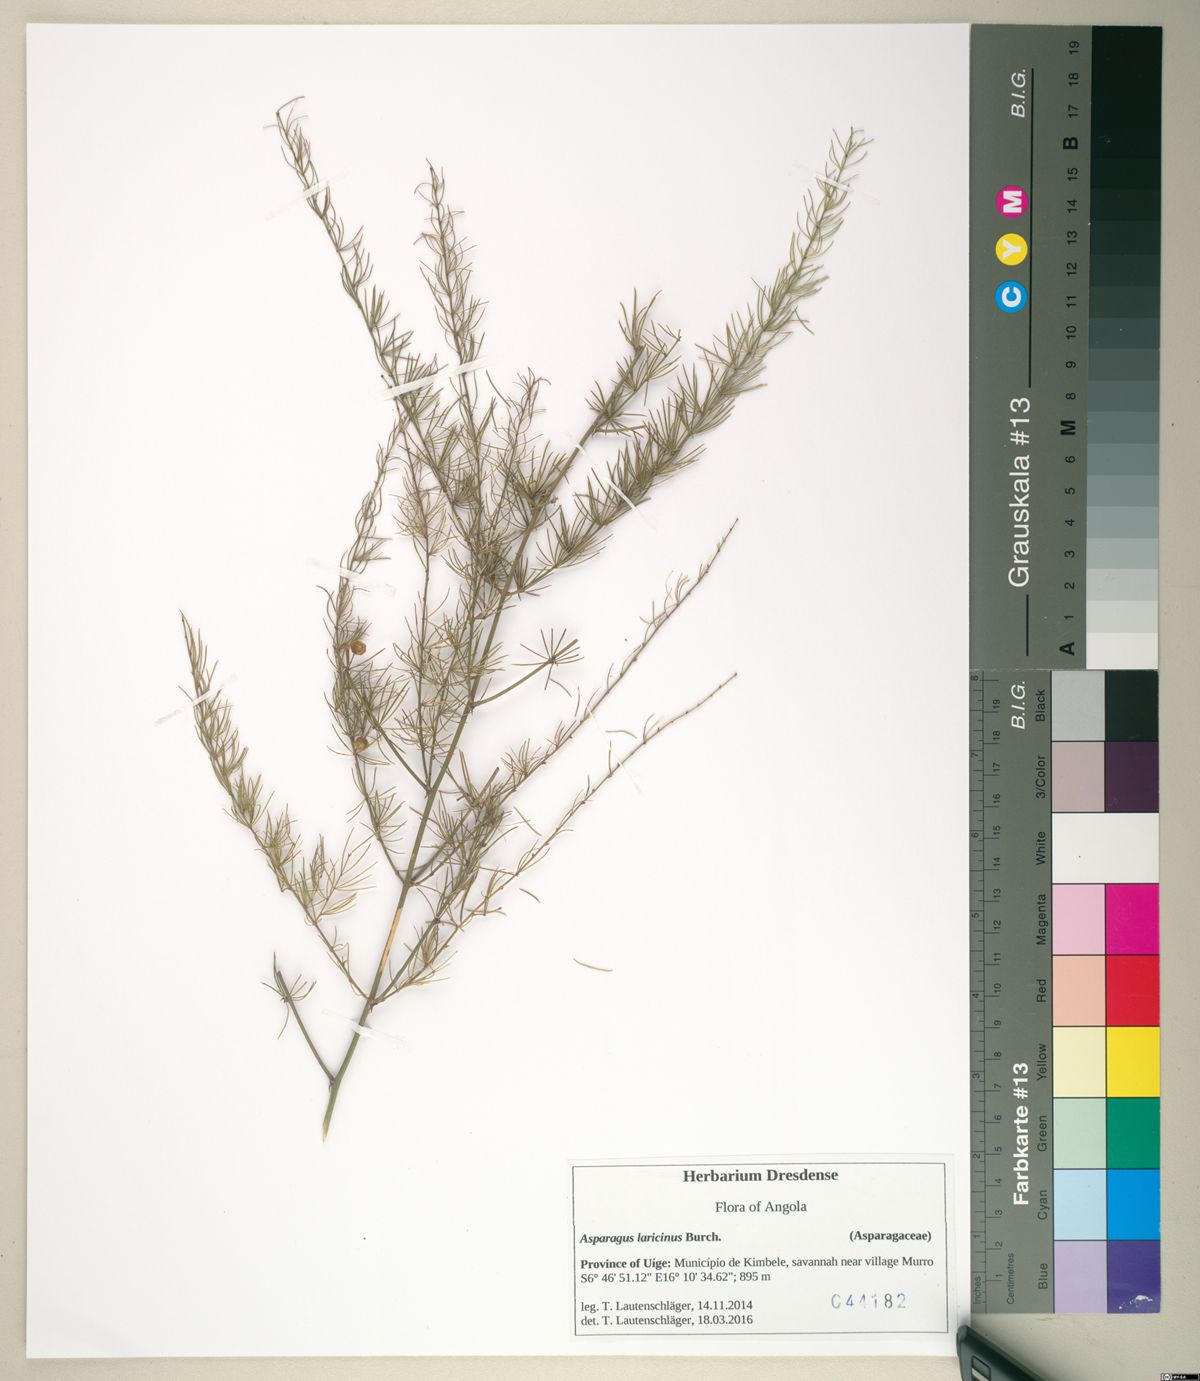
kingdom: Plantae
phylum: Tracheophyta
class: Liliopsida
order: Asparagales
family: Asparagaceae
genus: Asparagus
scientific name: Asparagus laricinus
